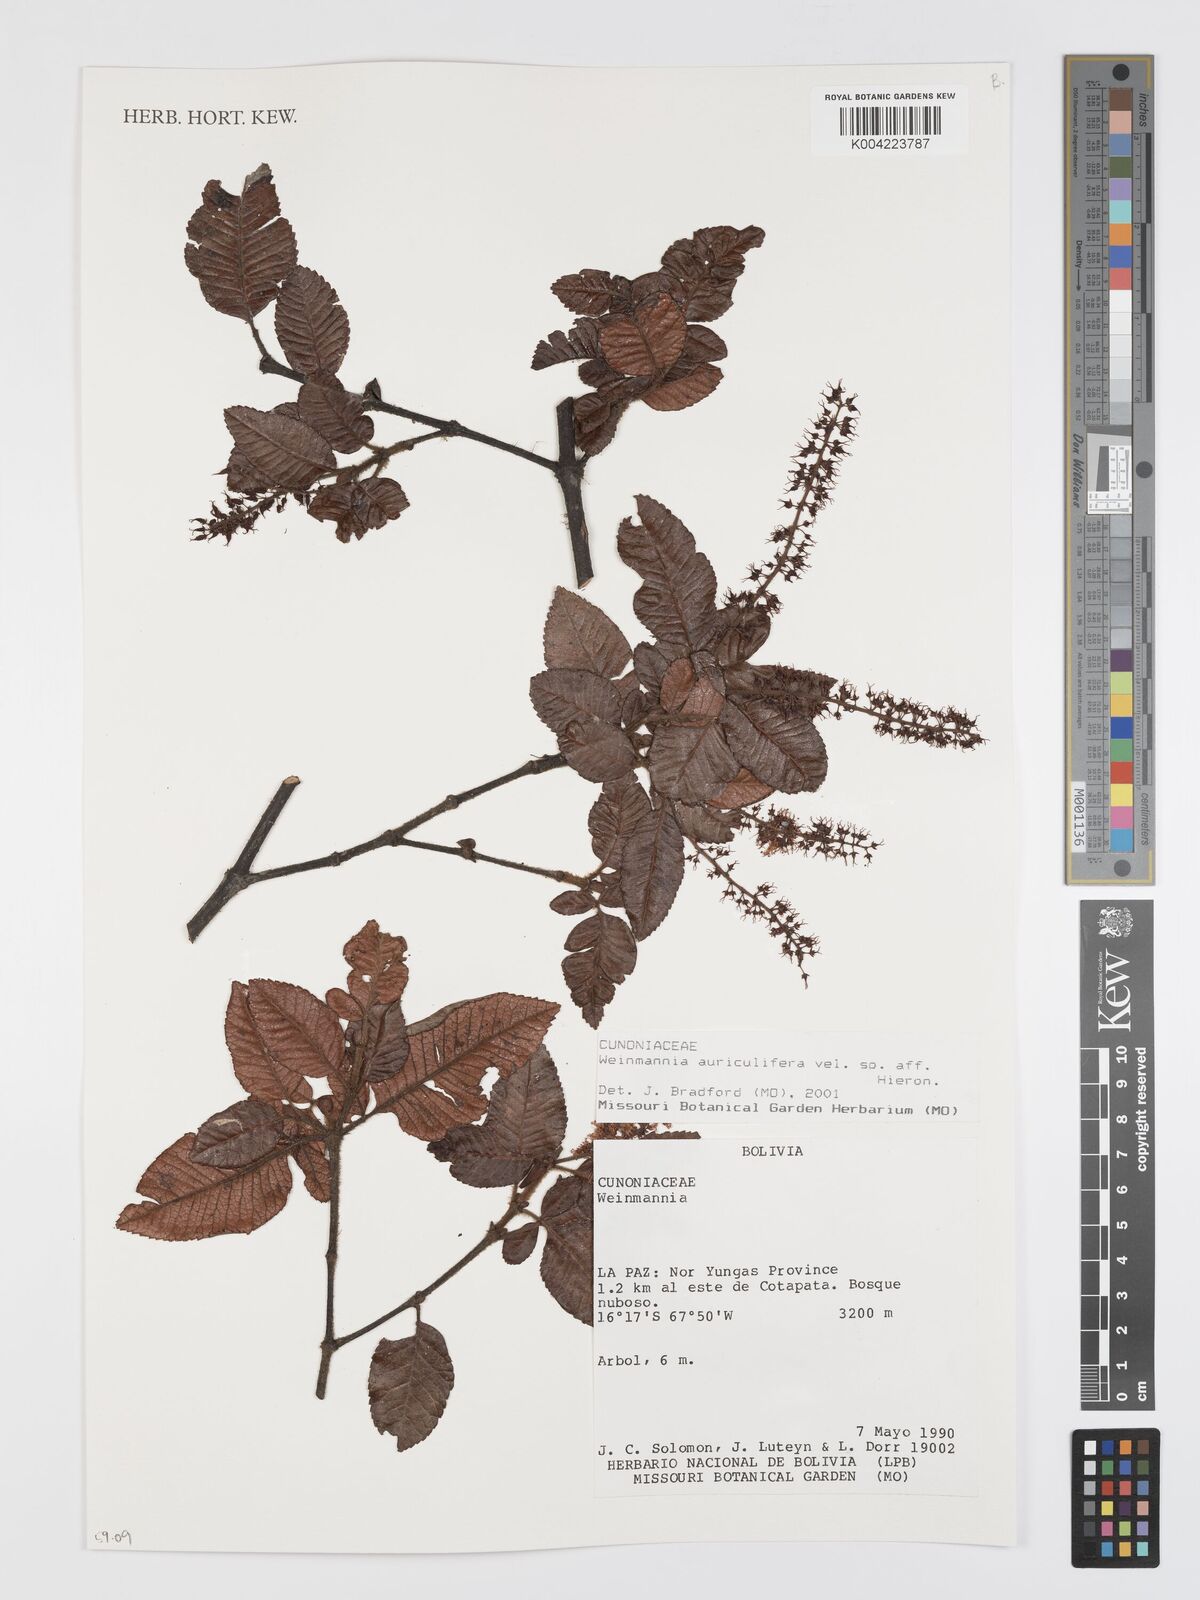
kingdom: Plantae
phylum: Tracheophyta
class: Magnoliopsida
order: Oxalidales
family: Cunoniaceae
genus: Weinmannia
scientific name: Weinmannia cordata
